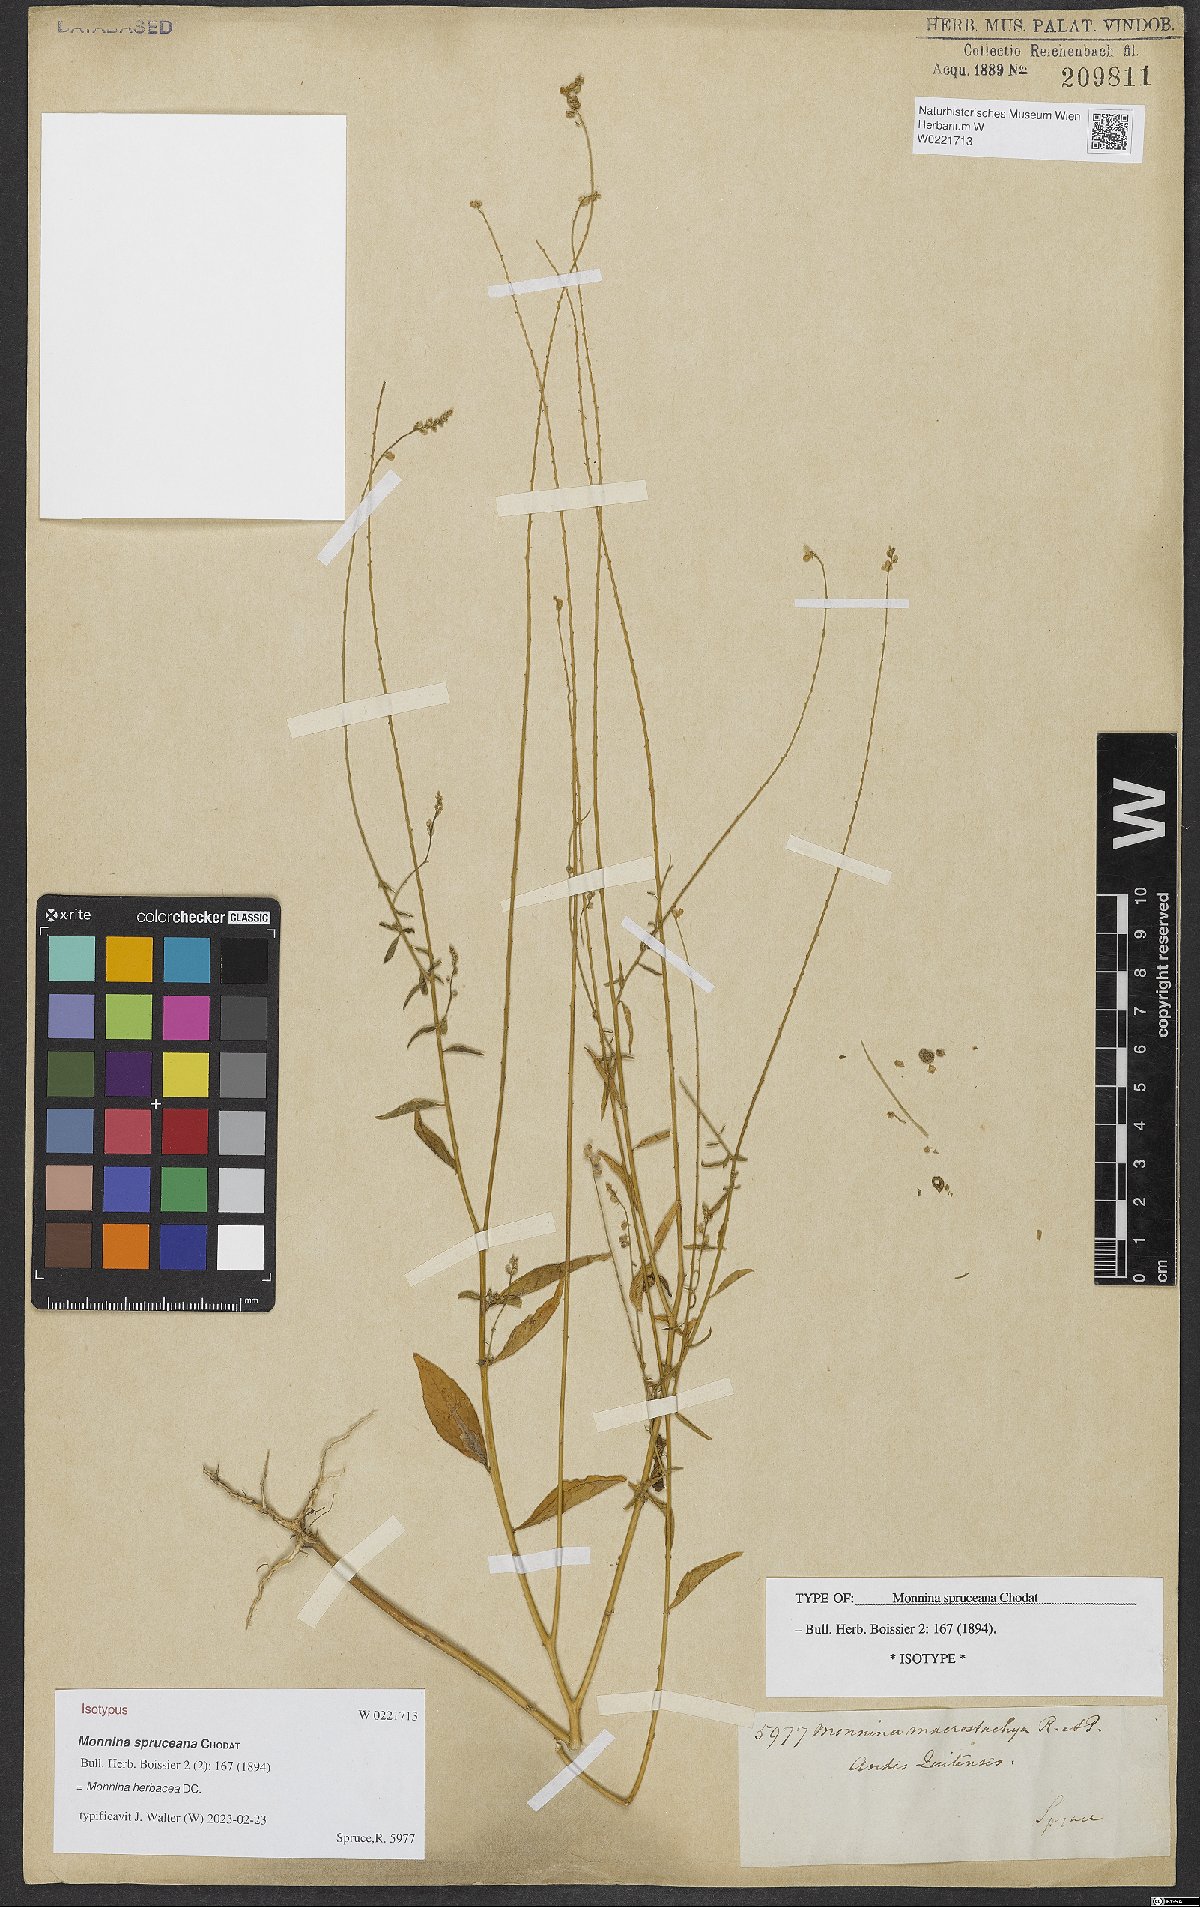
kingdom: Plantae
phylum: Tracheophyta
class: Magnoliopsida
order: Fabales
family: Polygalaceae
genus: Monnina
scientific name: Monnina herbacea
